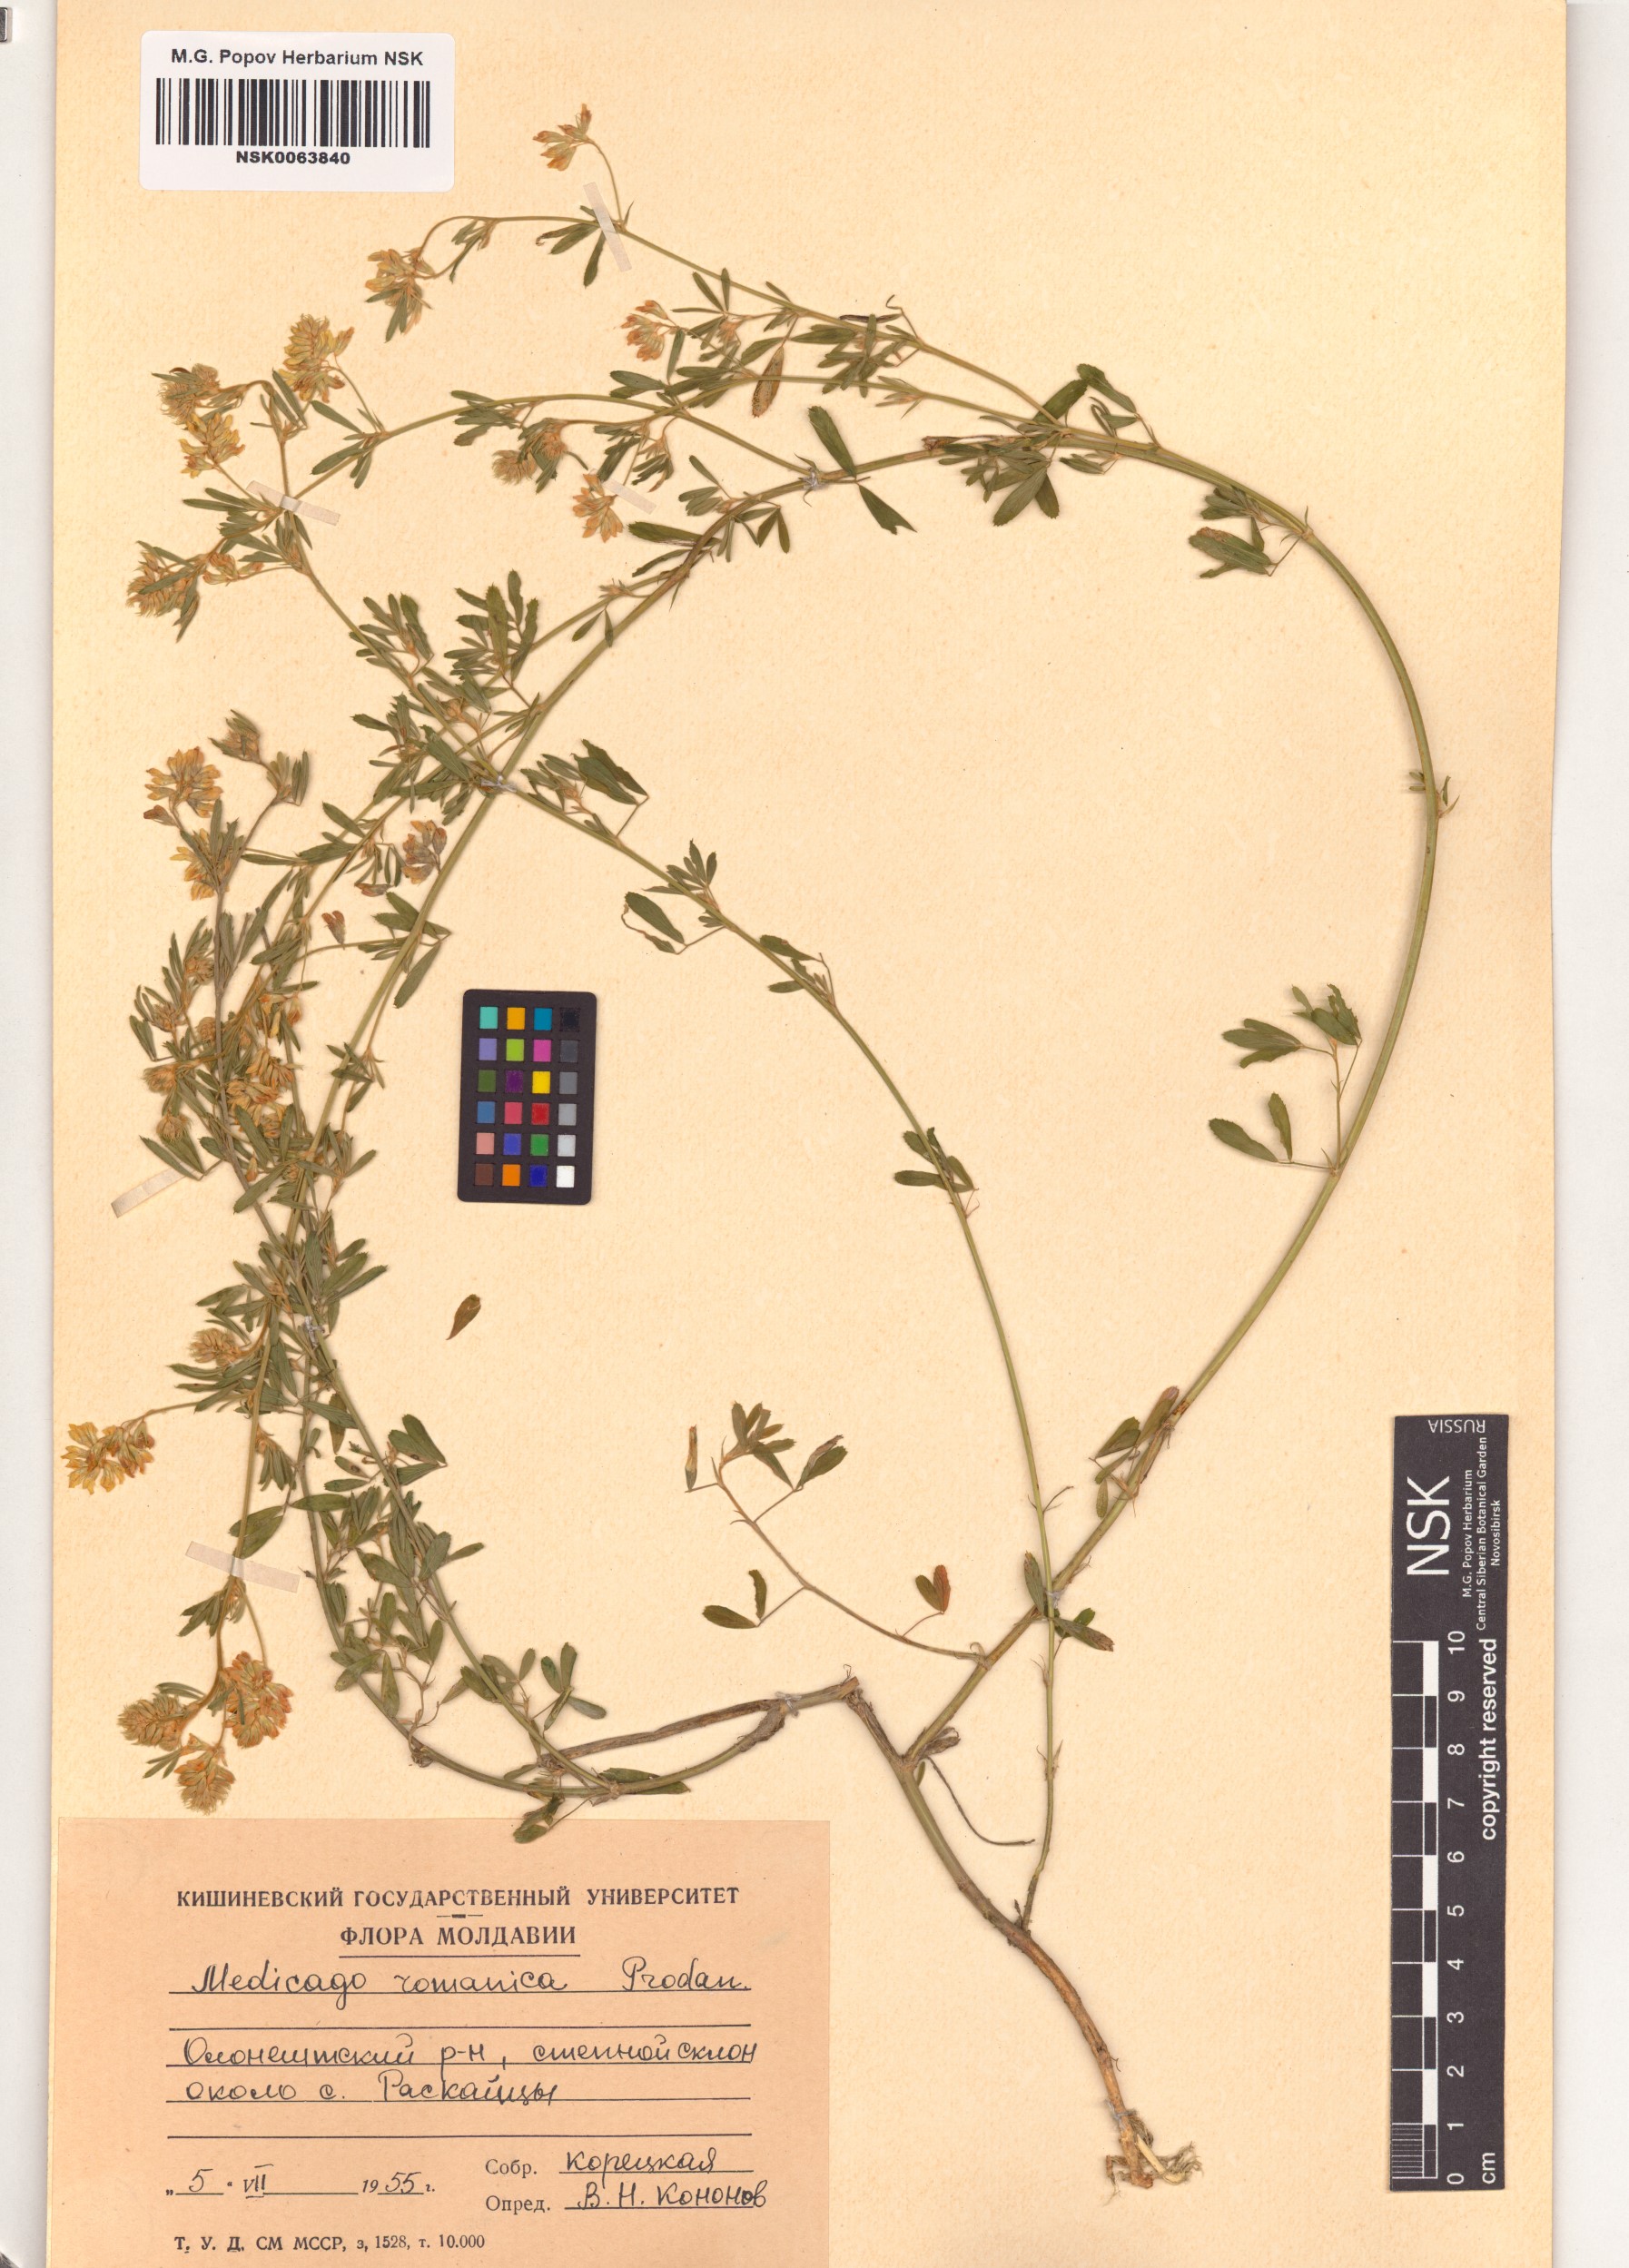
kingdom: Plantae
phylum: Tracheophyta
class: Magnoliopsida
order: Fabales
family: Fabaceae
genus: Medicago
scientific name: Medicago falcata
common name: Sickle medick
